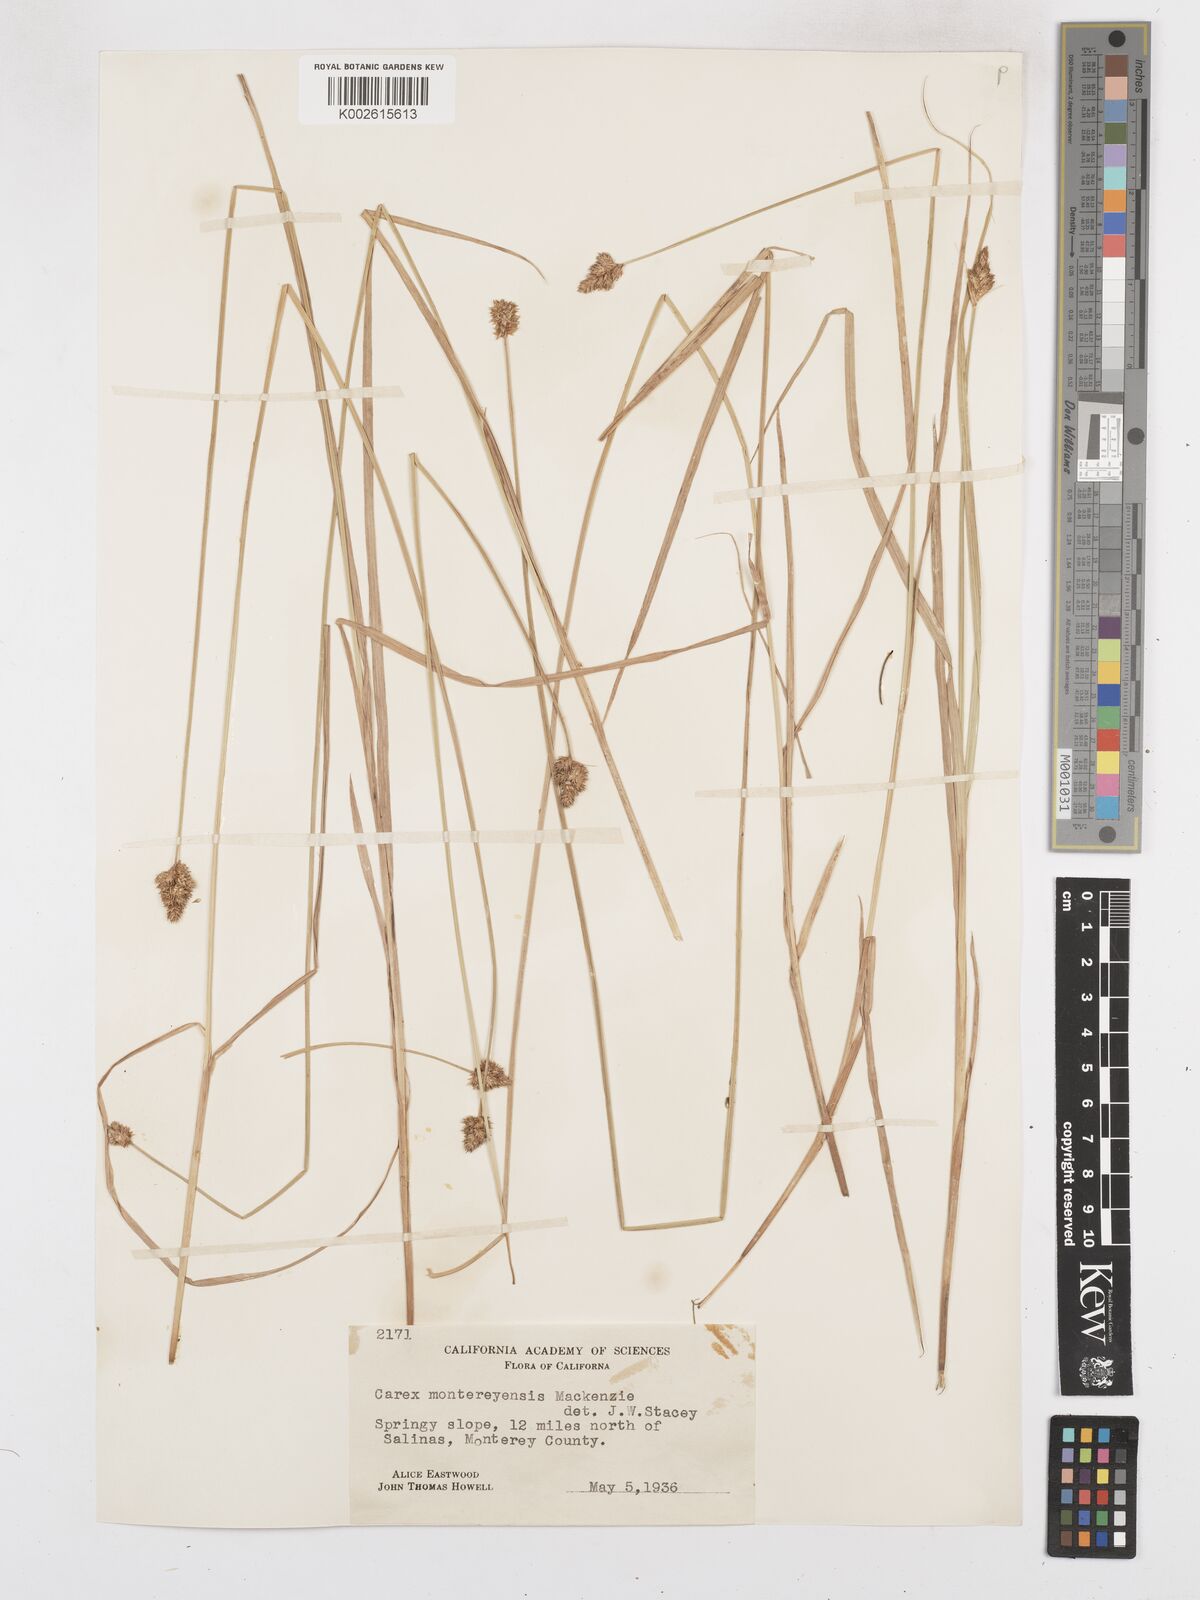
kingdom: Plantae
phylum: Tracheophyta
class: Liliopsida
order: Poales
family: Cyperaceae
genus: Carex
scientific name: Carex harfordii
